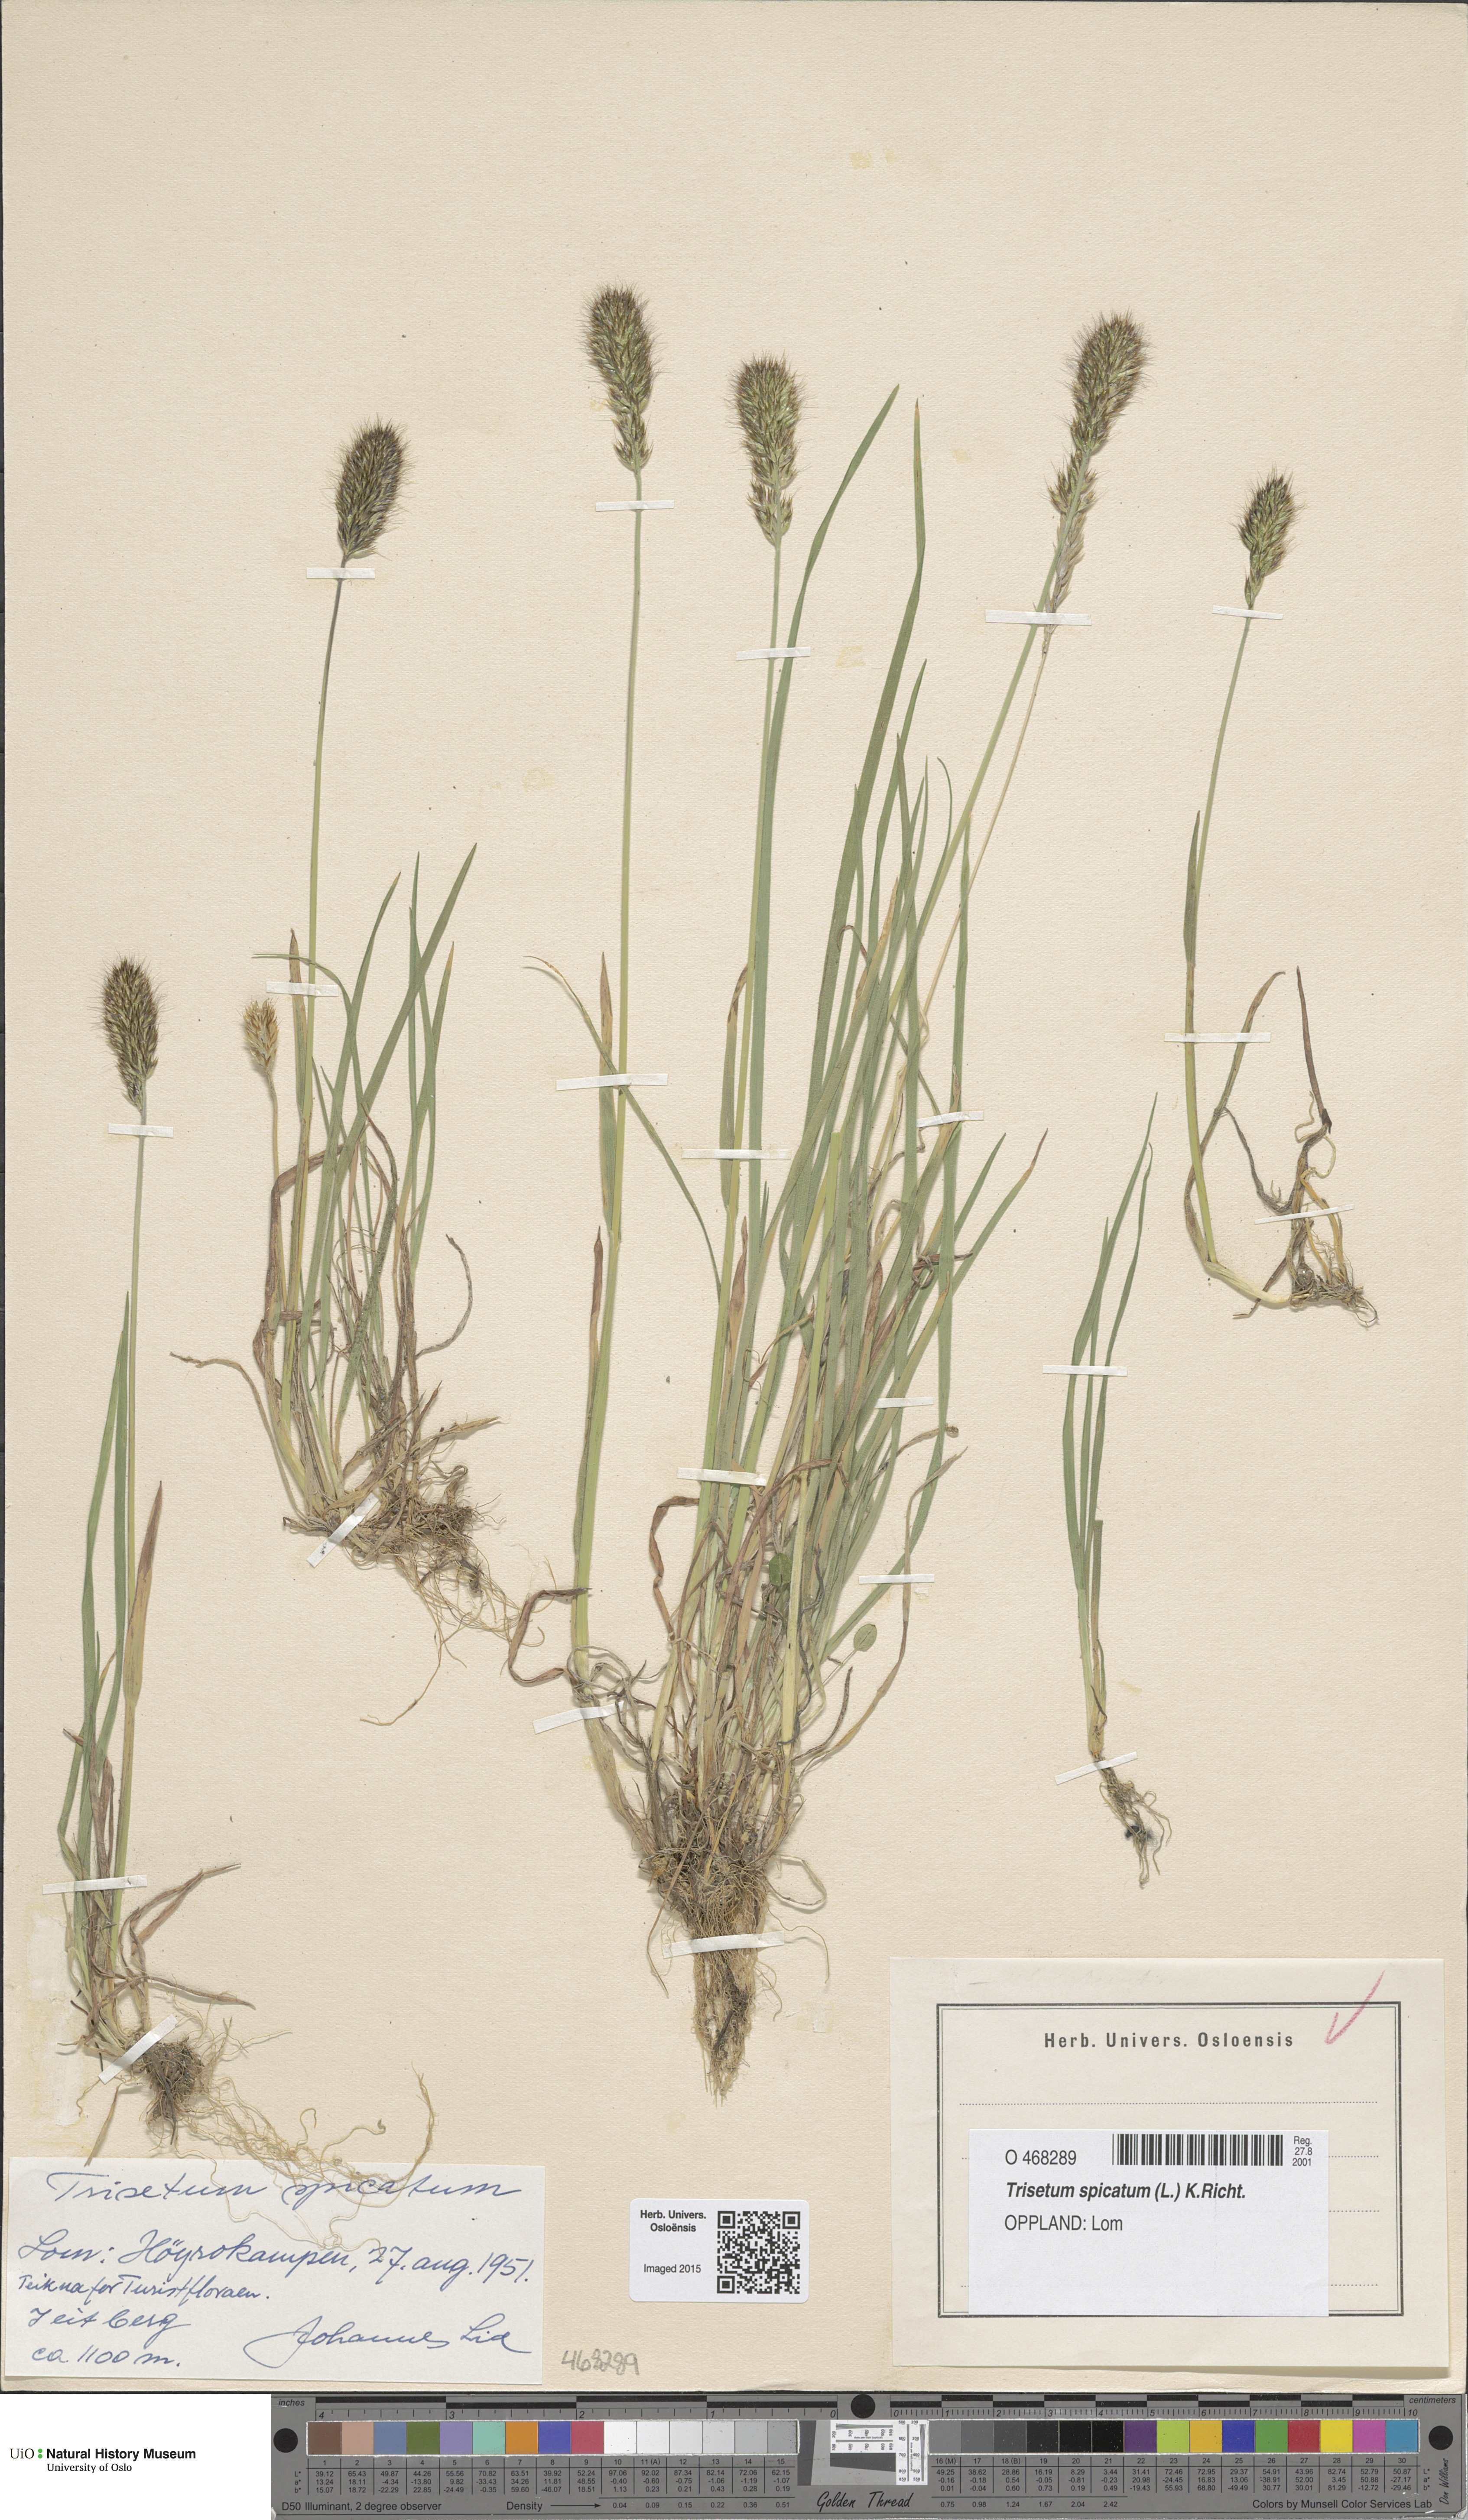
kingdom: Plantae
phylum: Tracheophyta
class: Liliopsida
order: Poales
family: Poaceae
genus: Koeleria
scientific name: Koeleria spicata
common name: Mountain trisetum
